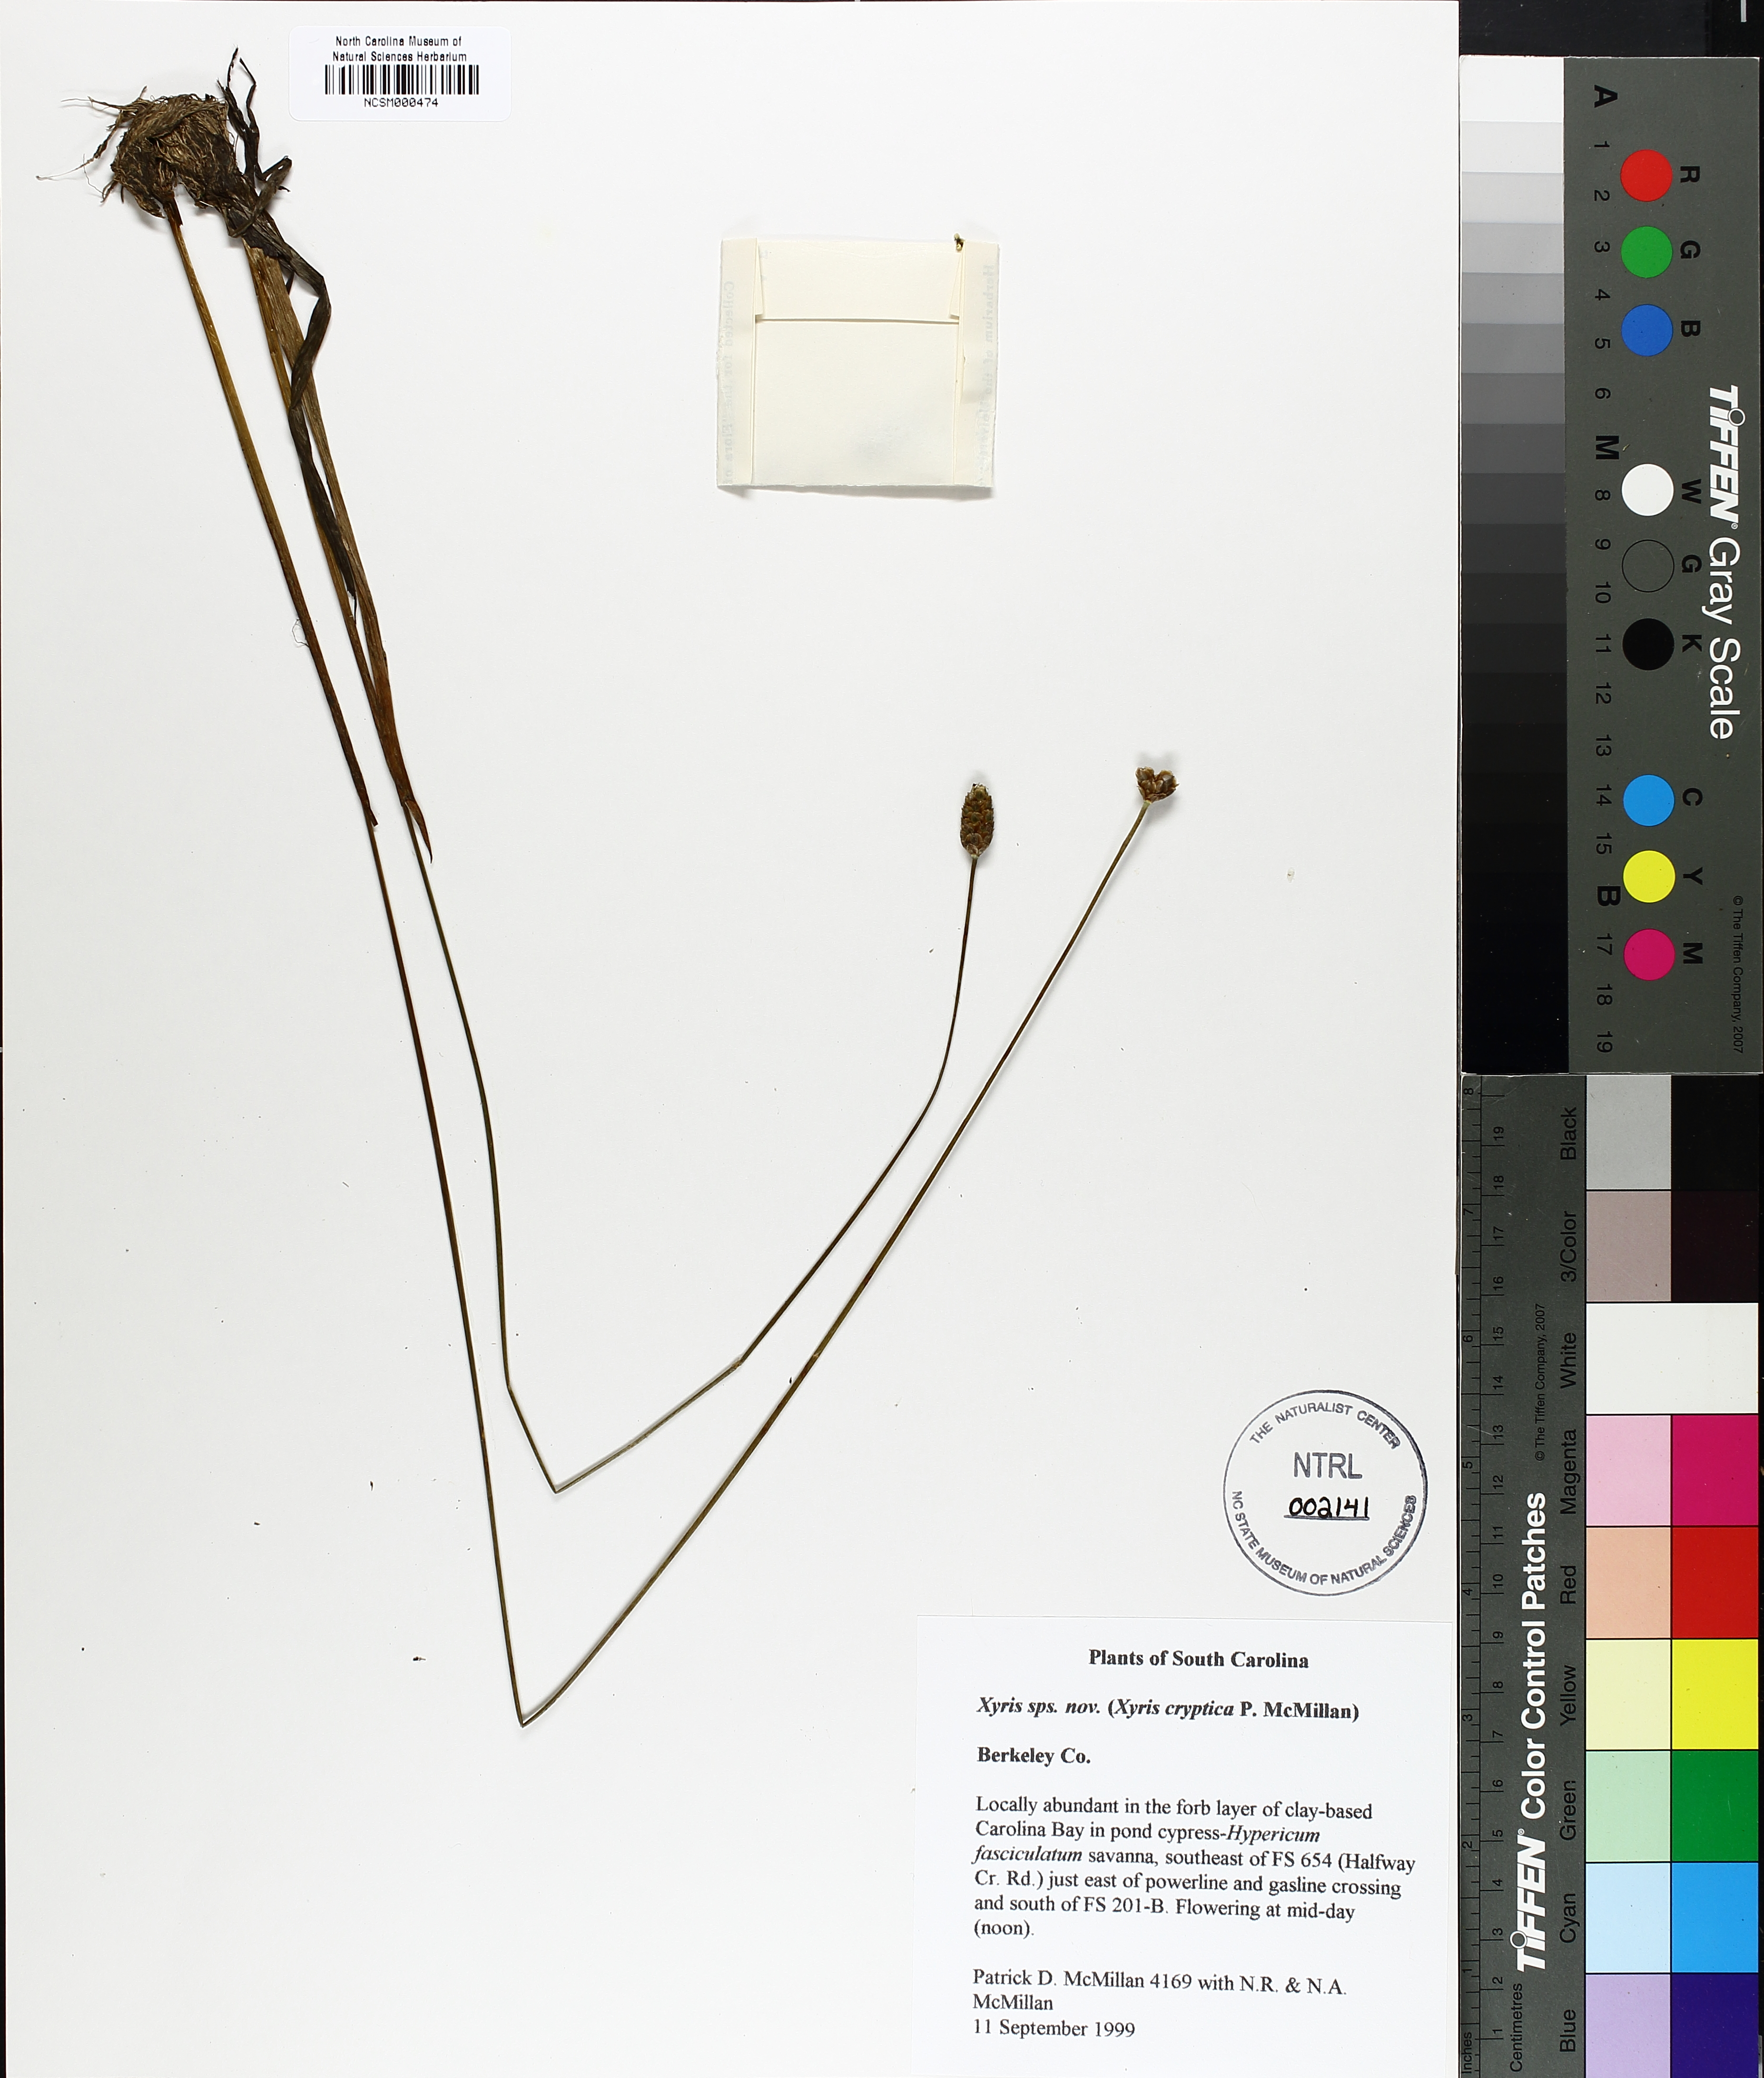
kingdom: Plantae
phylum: Tracheophyta
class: Liliopsida
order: Poales
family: Xyridaceae
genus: Xyris
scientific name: Xyris
